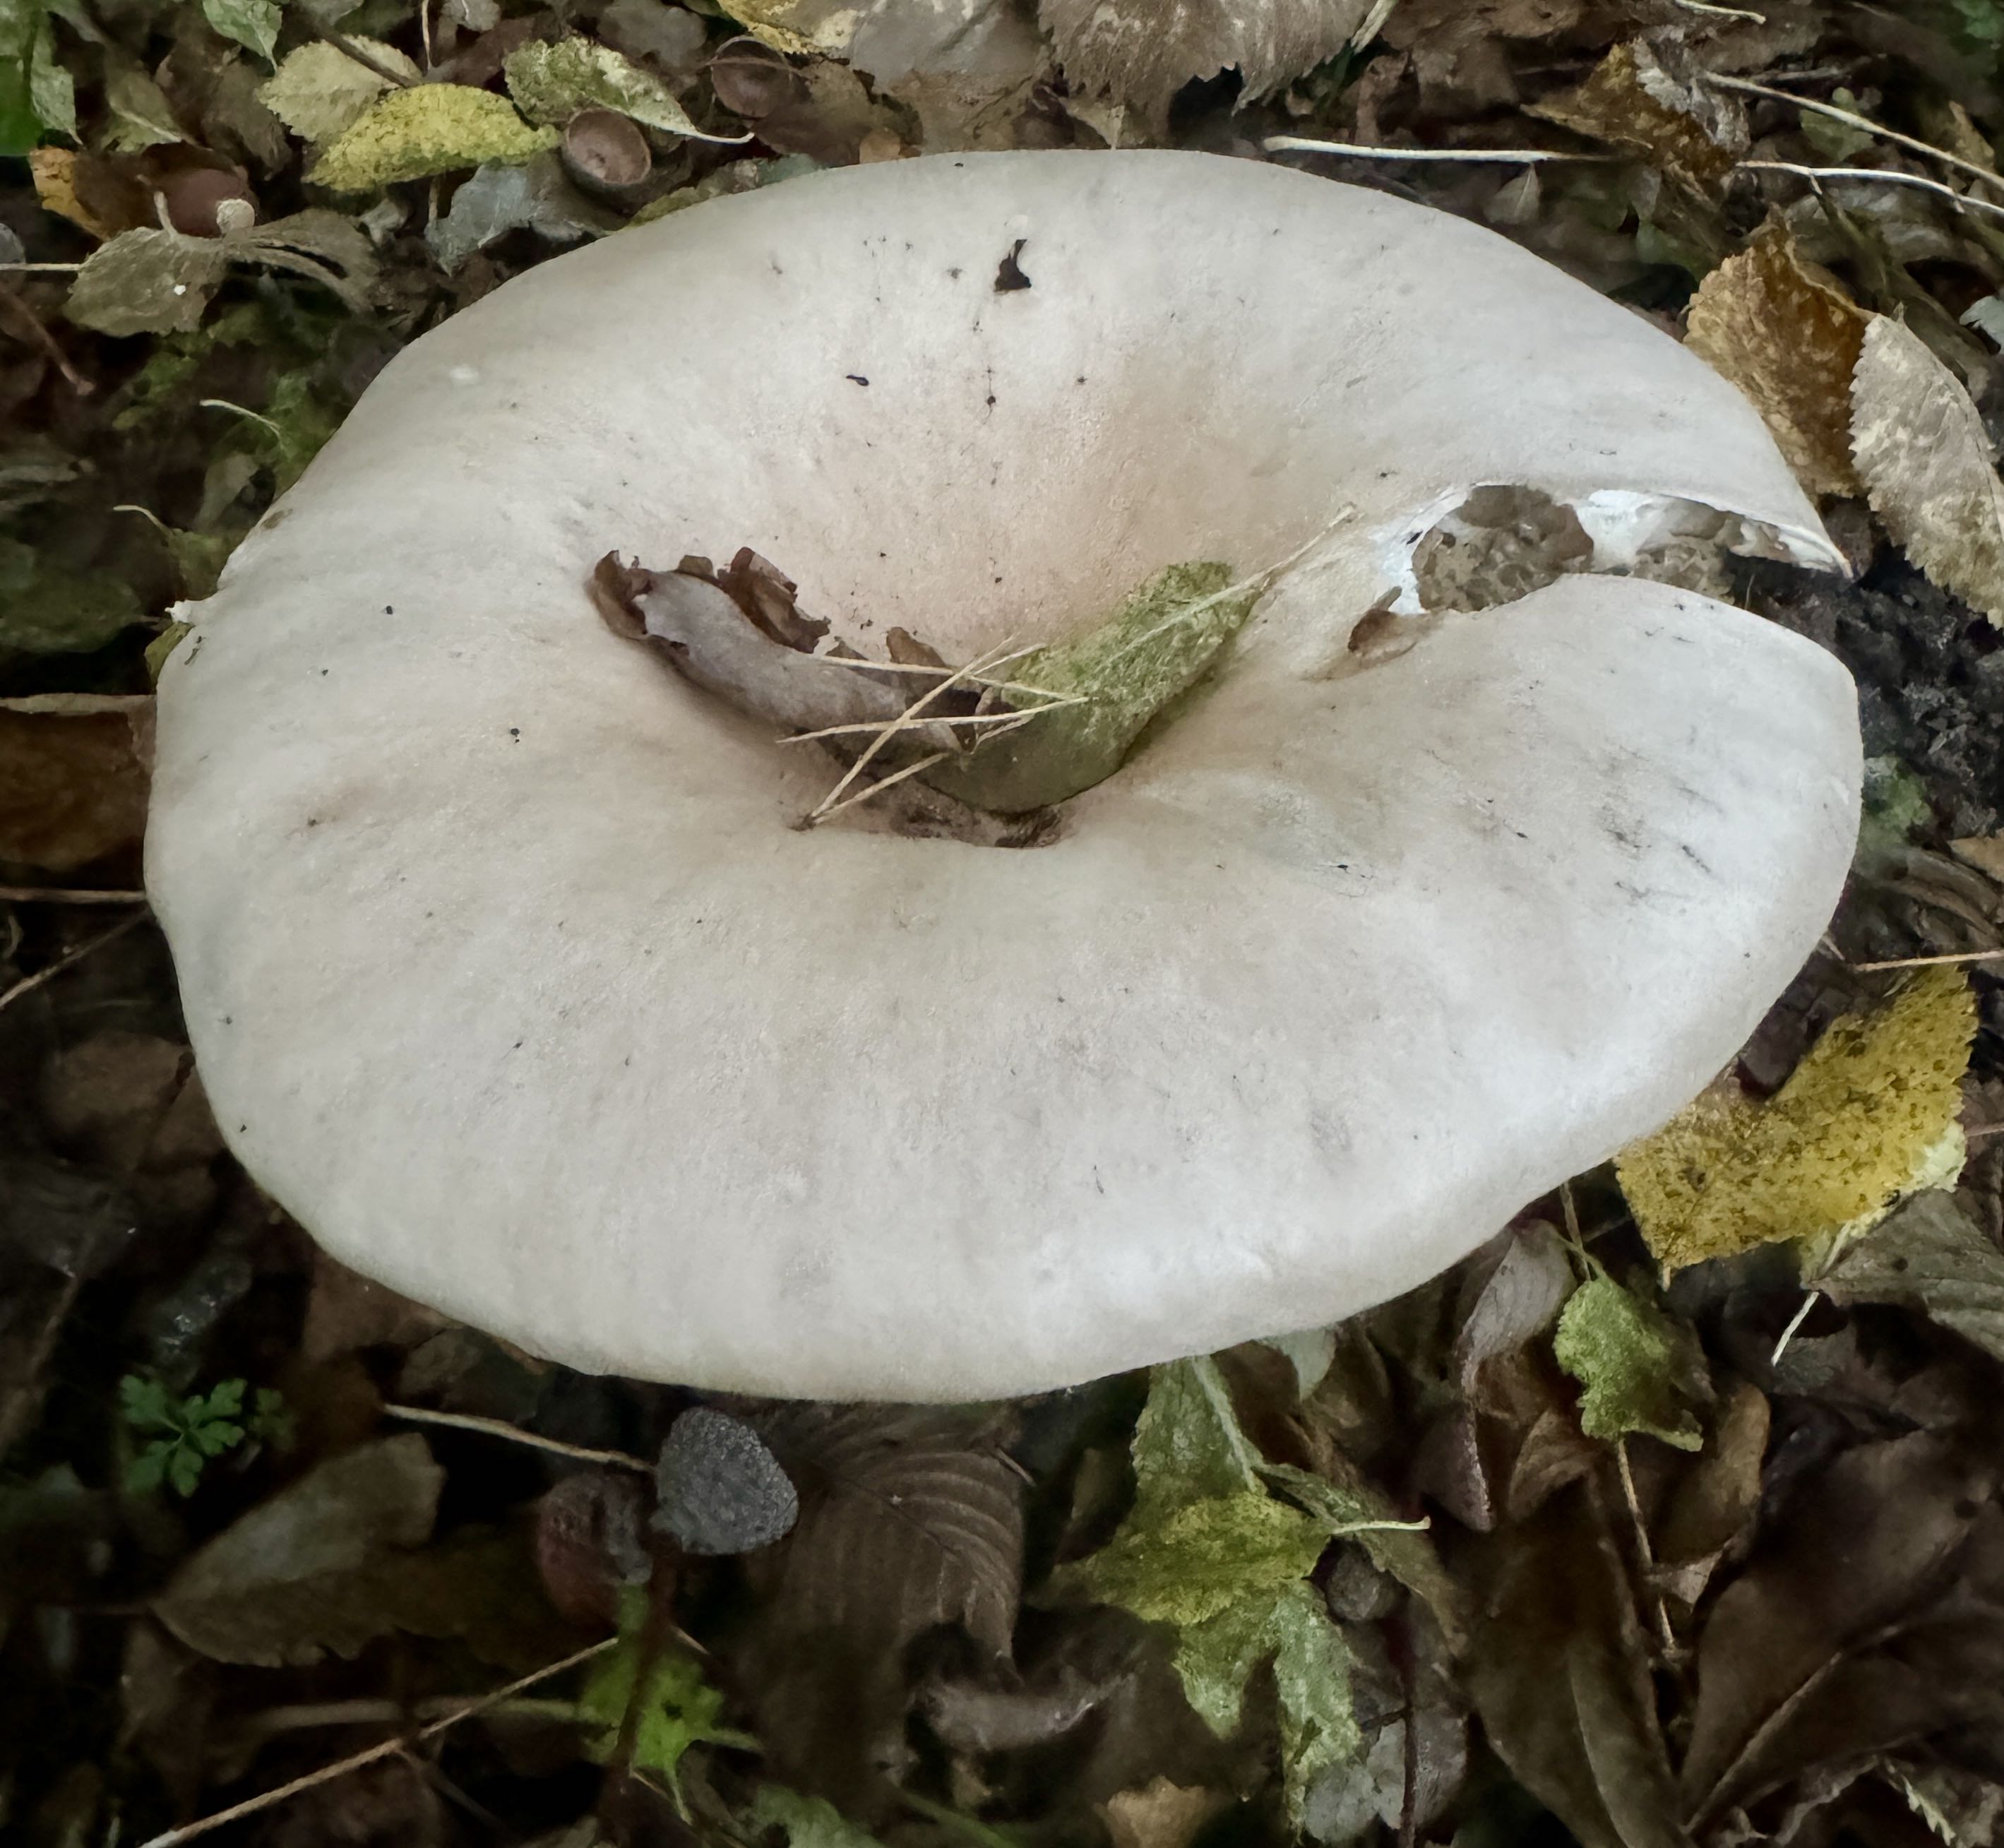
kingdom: Fungi
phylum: Basidiomycota
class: Agaricomycetes
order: Agaricales
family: Tricholomataceae
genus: Infundibulicybe
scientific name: Infundibulicybe geotropa
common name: stor tragthat
